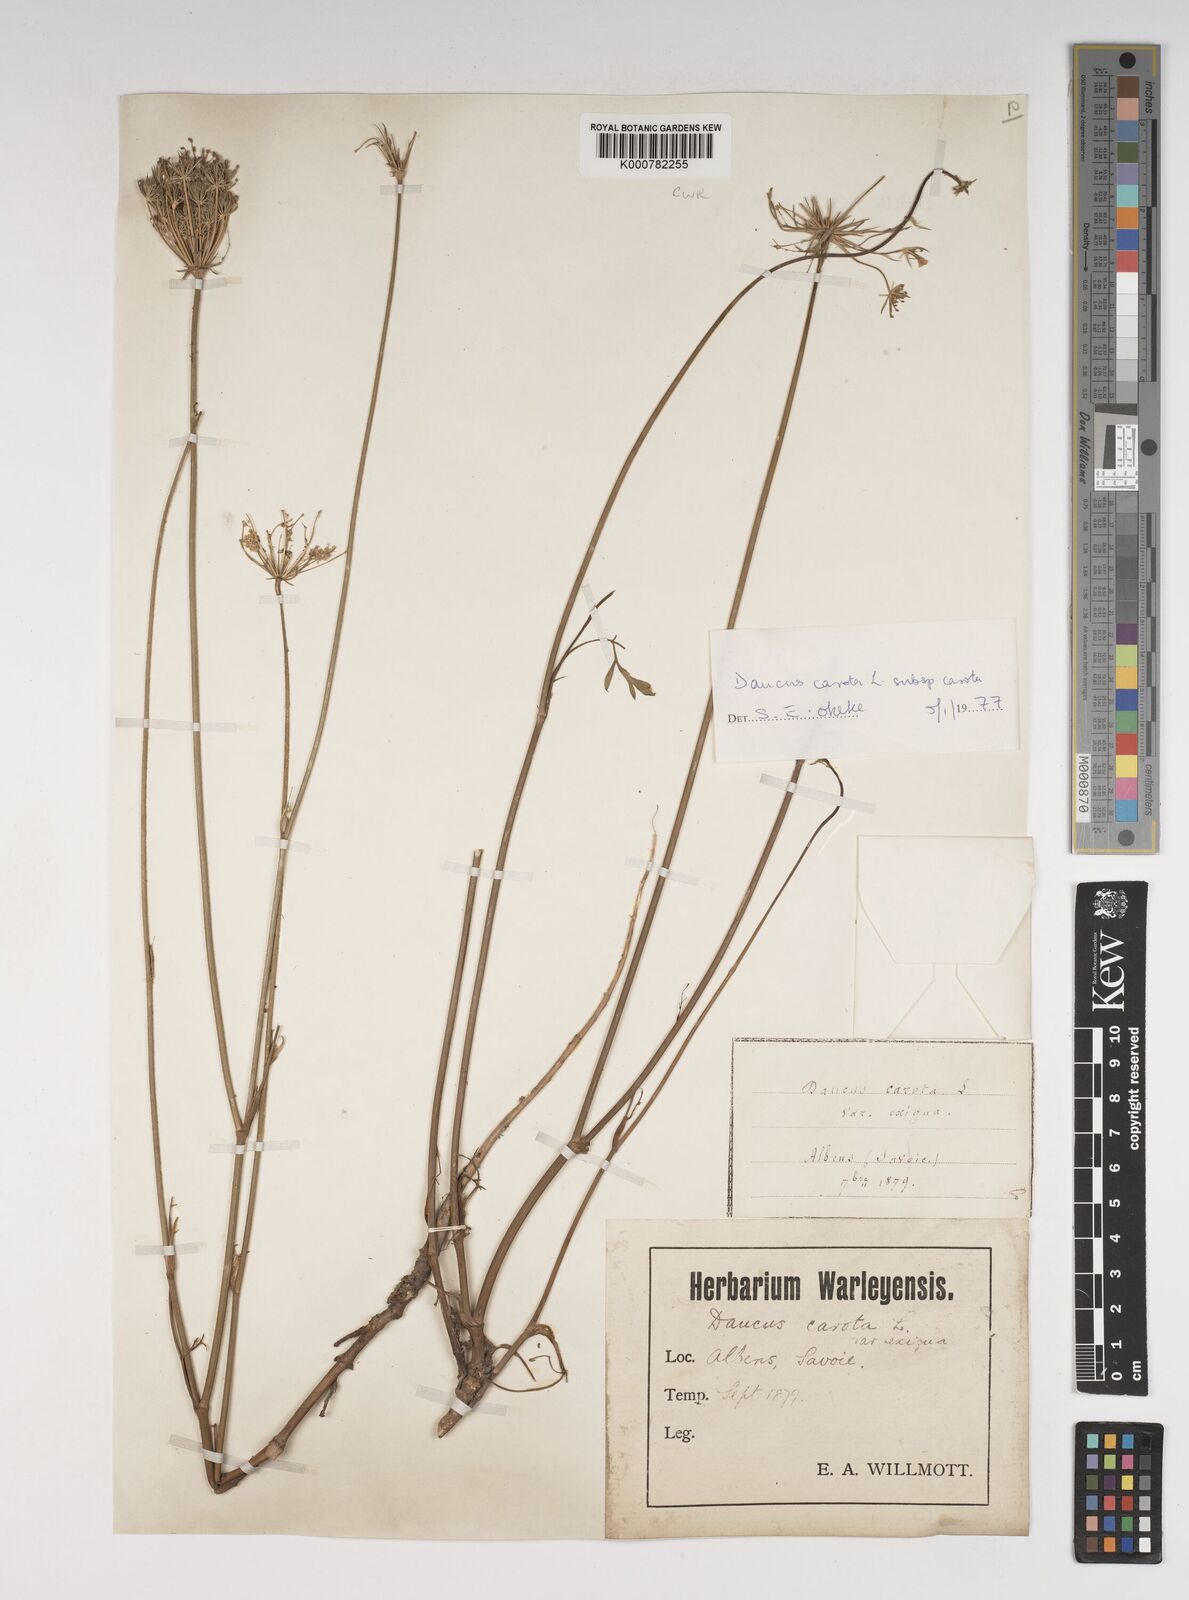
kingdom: Plantae
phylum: Tracheophyta
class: Magnoliopsida
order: Apiales
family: Apiaceae
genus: Daucus
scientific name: Daucus carota
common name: Wild carrot
